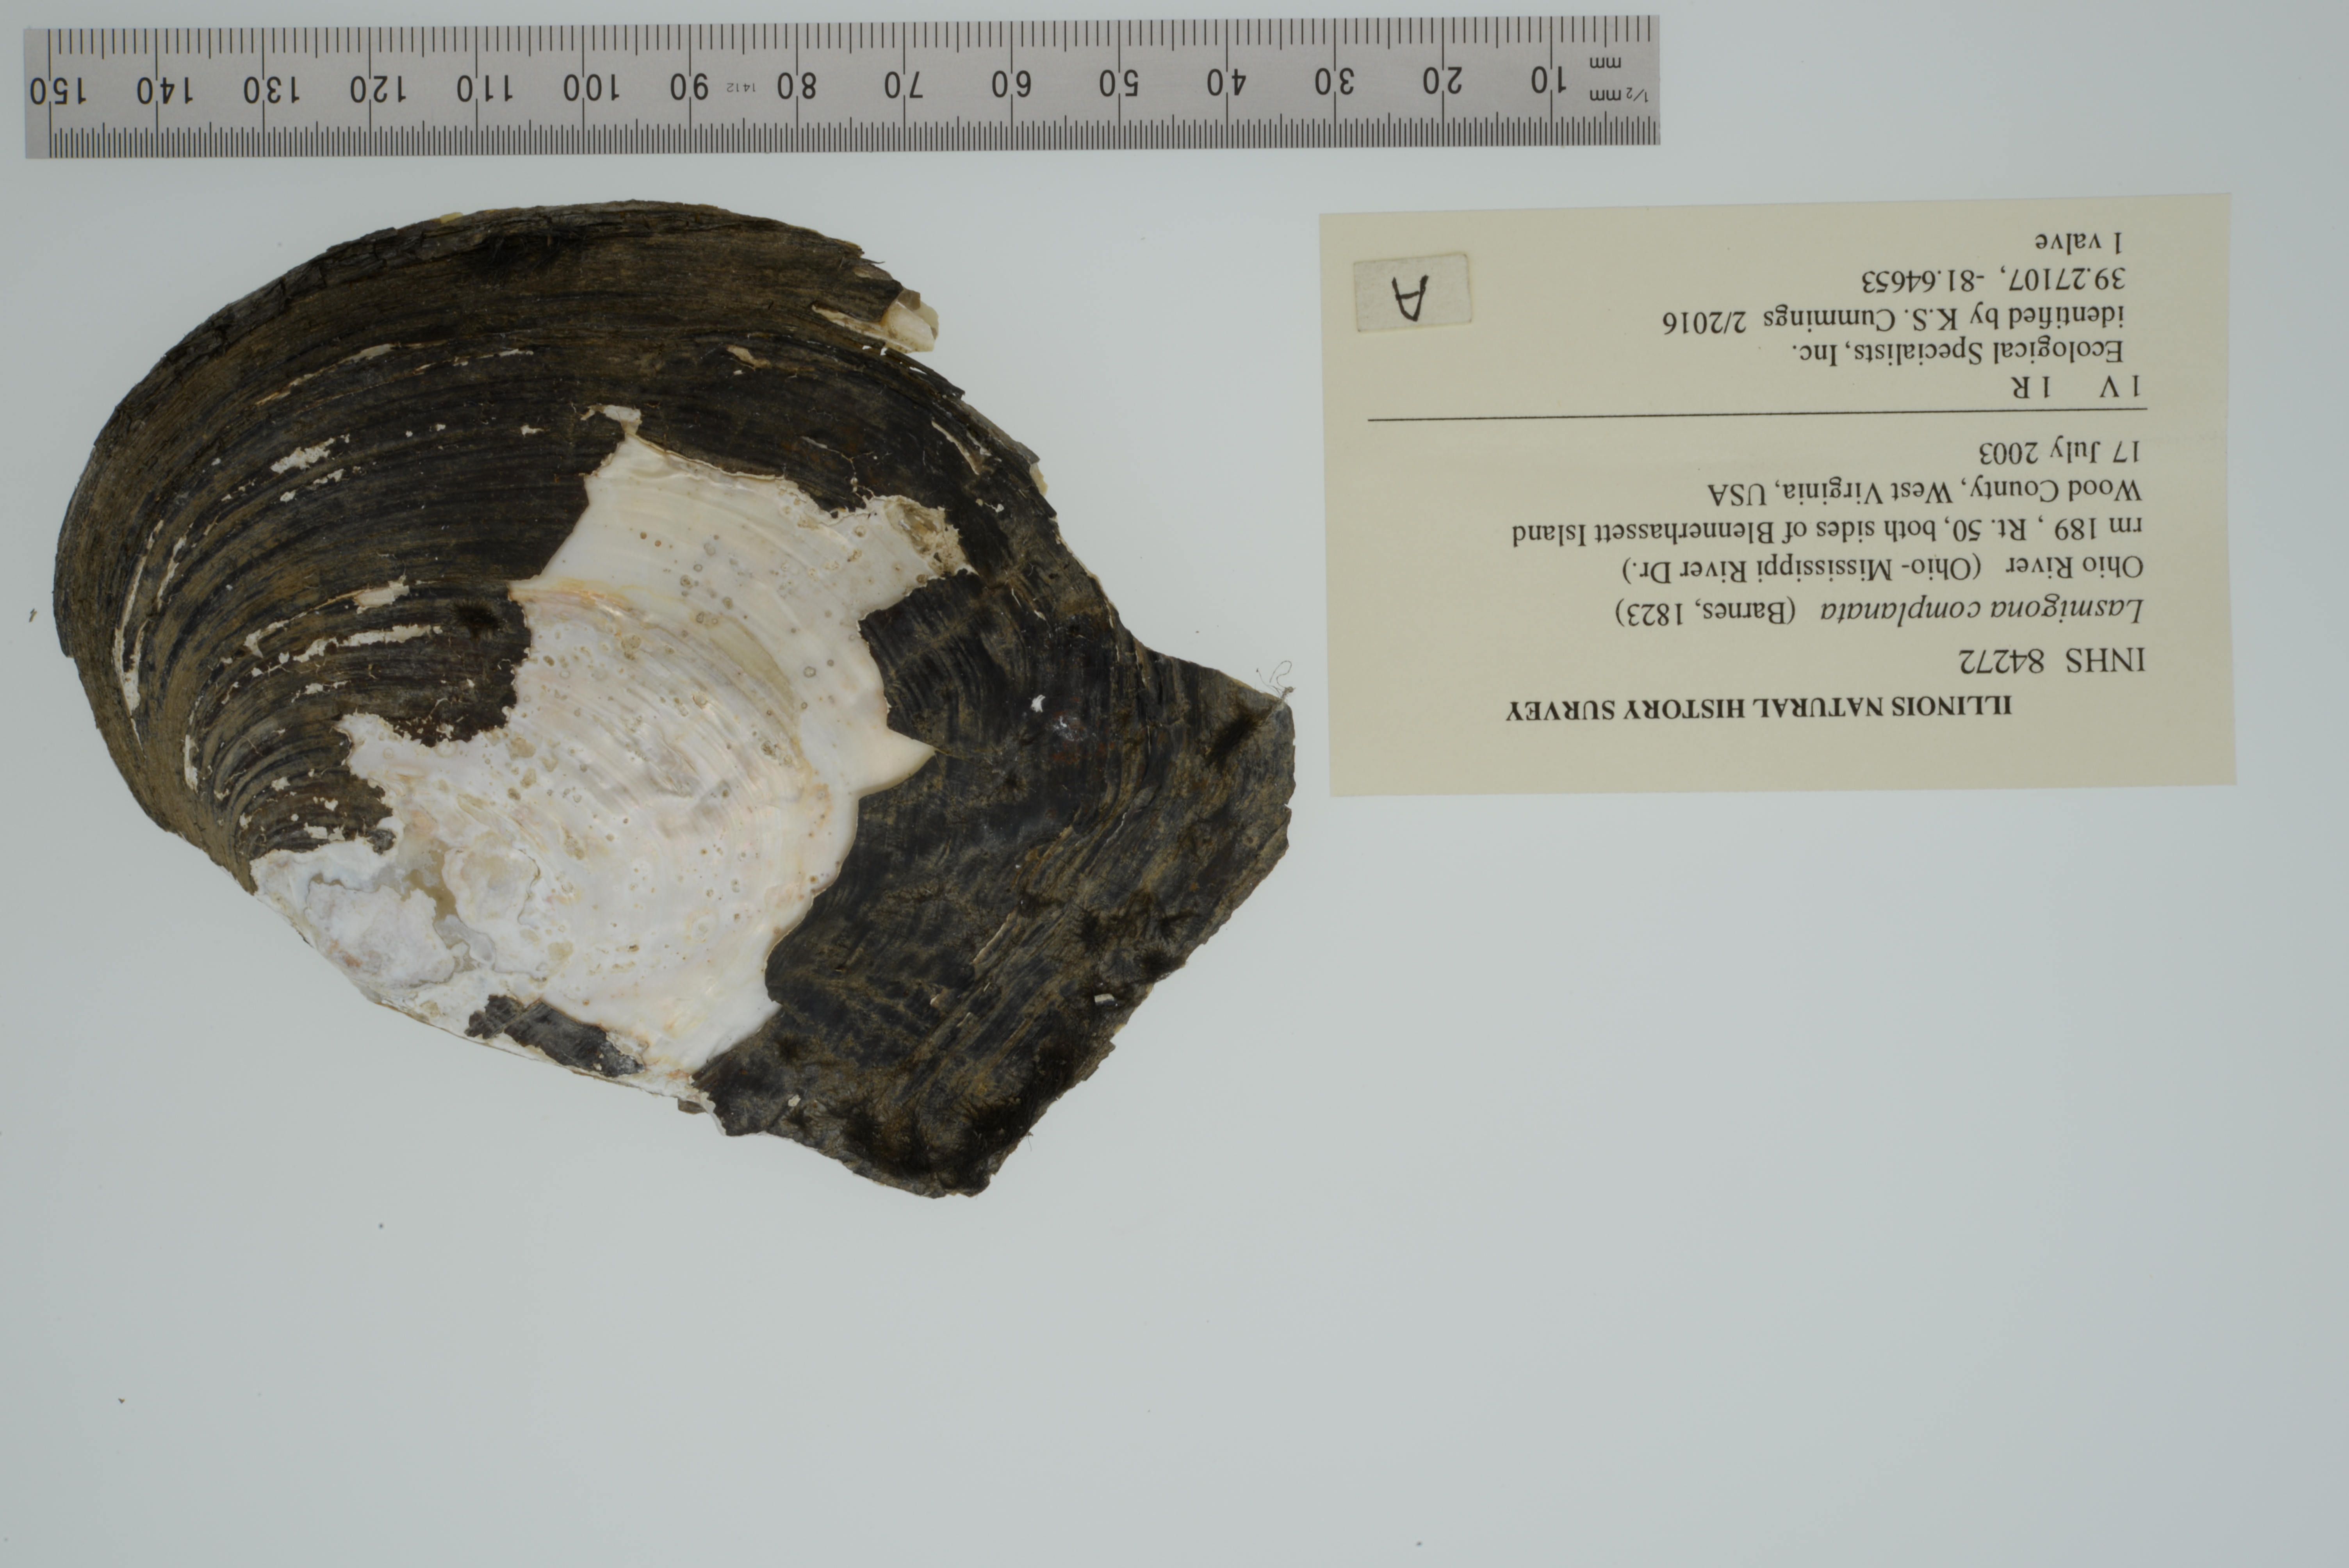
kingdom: Animalia
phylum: Mollusca
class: Bivalvia
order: Unionida
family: Unionidae
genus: Lasmigona
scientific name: Lasmigona complanata
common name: White heelsplitter
